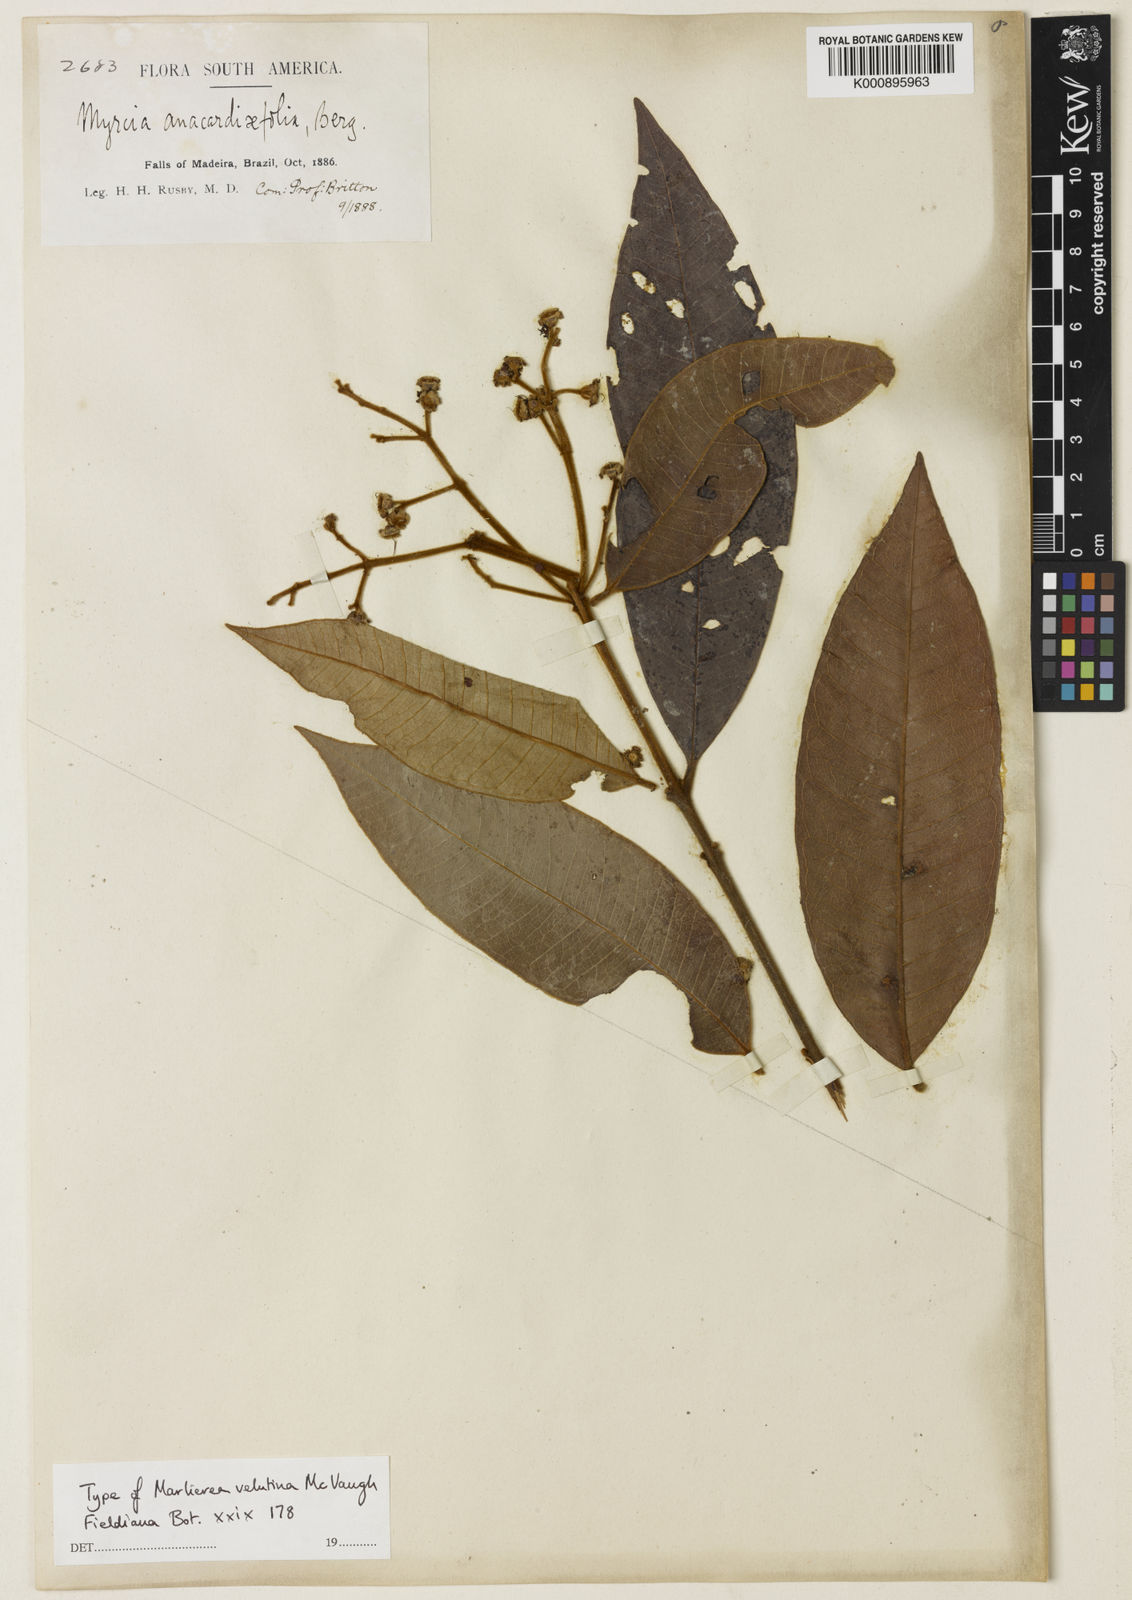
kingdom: Plantae
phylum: Tracheophyta
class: Magnoliopsida
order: Myrtales
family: Myrtaceae
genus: Myrcia
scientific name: Myrcia neovelutina
